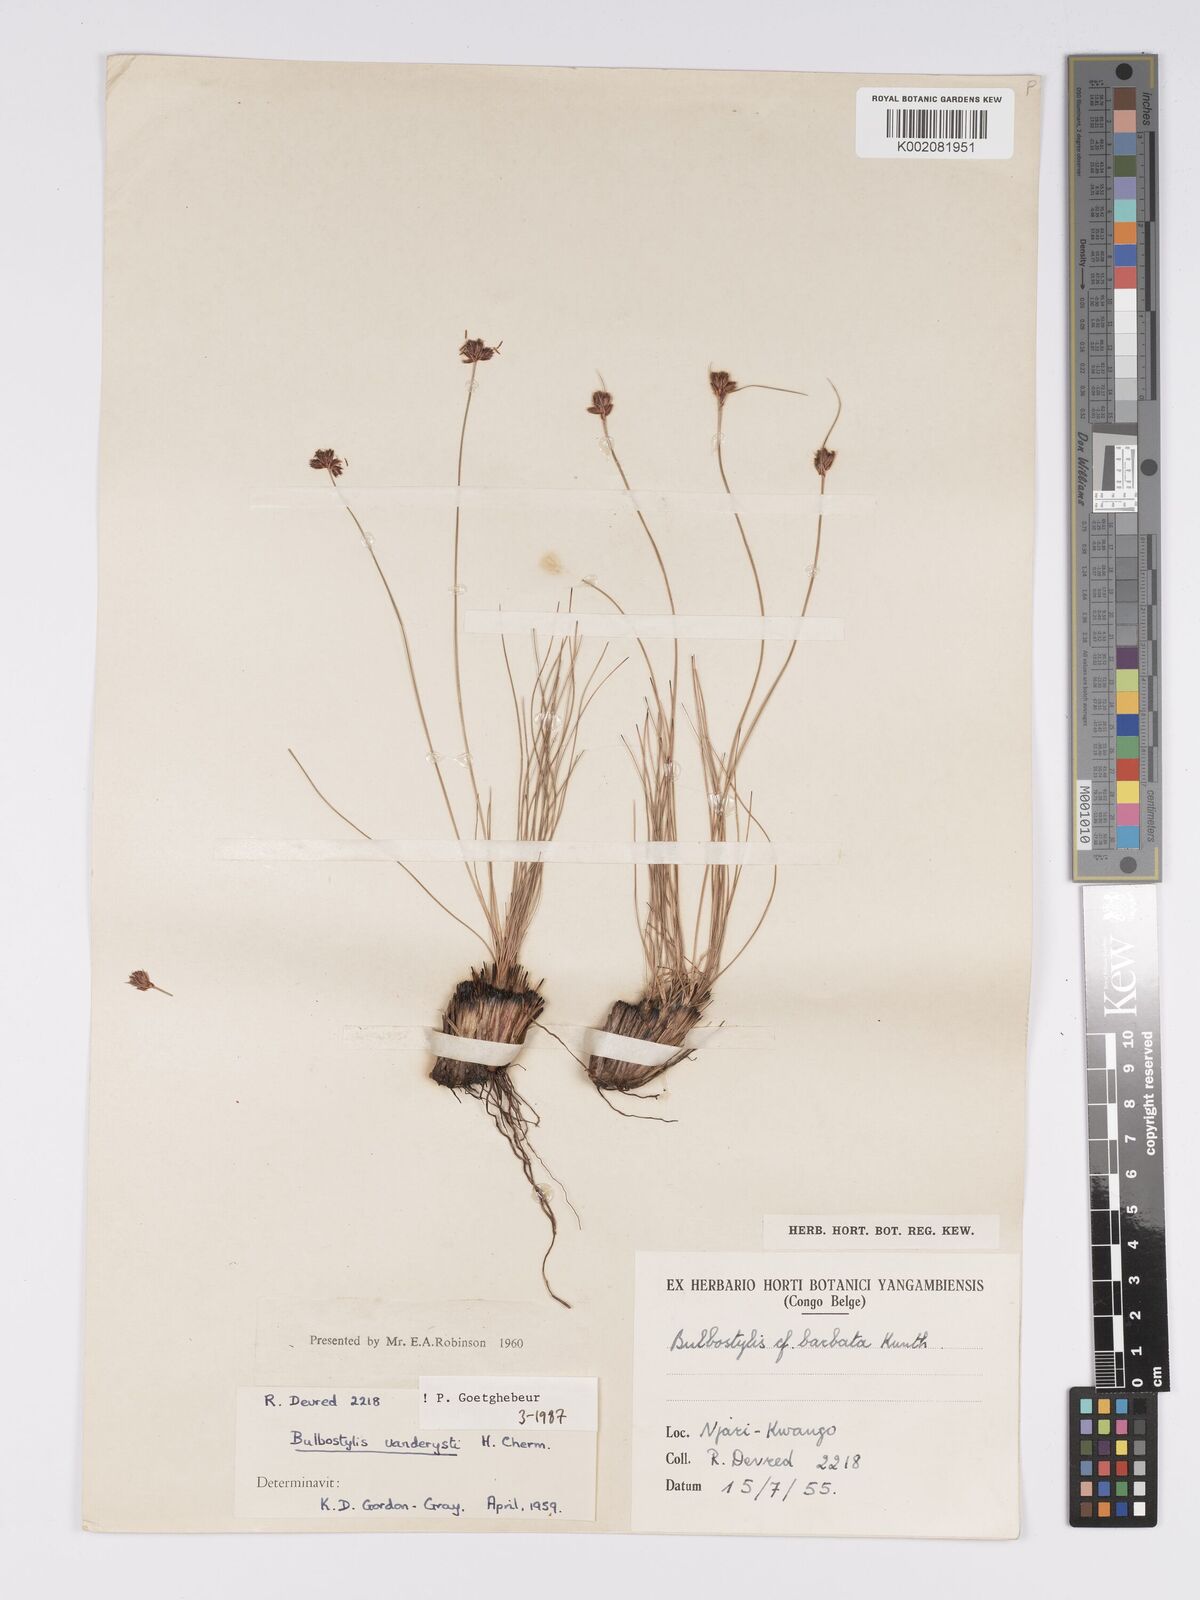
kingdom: Plantae
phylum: Tracheophyta
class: Liliopsida
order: Poales
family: Cyperaceae
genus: Bulbostylis
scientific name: Bulbostylis vanderystii
